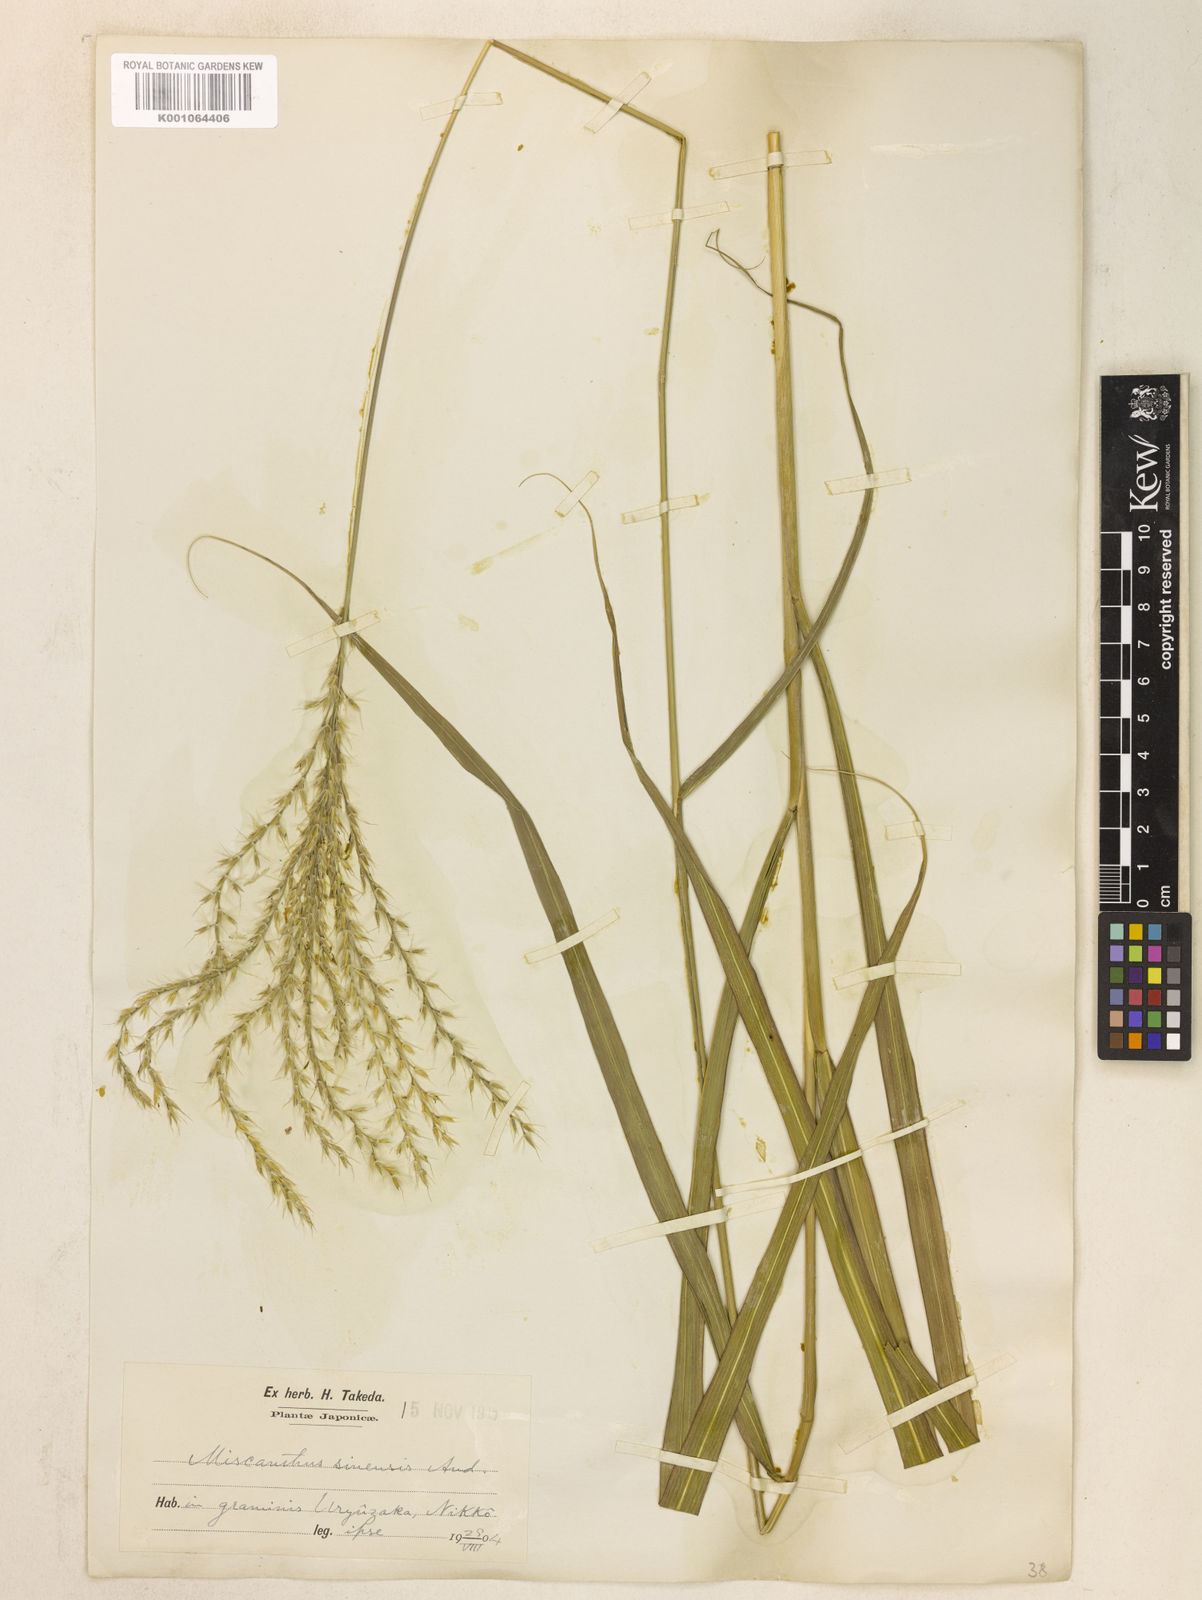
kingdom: Plantae
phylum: Tracheophyta
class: Liliopsida
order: Poales
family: Poaceae
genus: Miscanthus
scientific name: Miscanthus sinensis
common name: Chinese silvergrass
